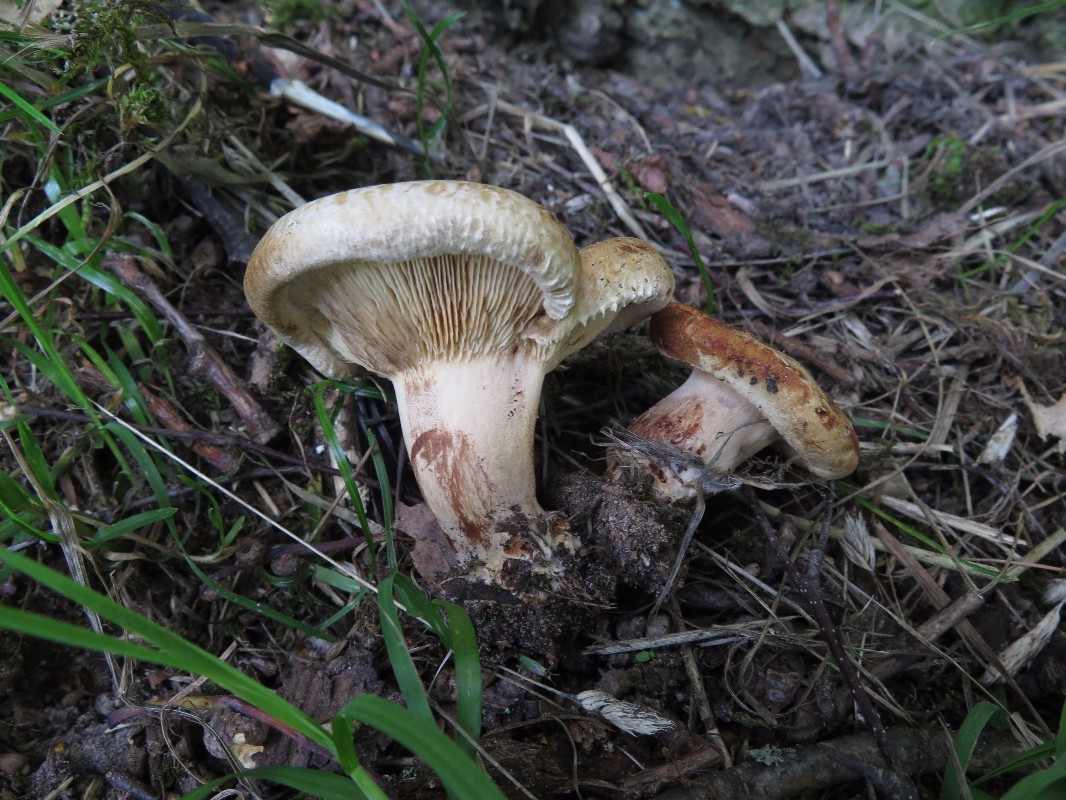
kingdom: Fungi
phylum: Basidiomycota
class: Agaricomycetes
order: Boletales
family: Paxillaceae
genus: Paxillus
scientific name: Paxillus obscurisporus
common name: mahognisporet netbladhat
